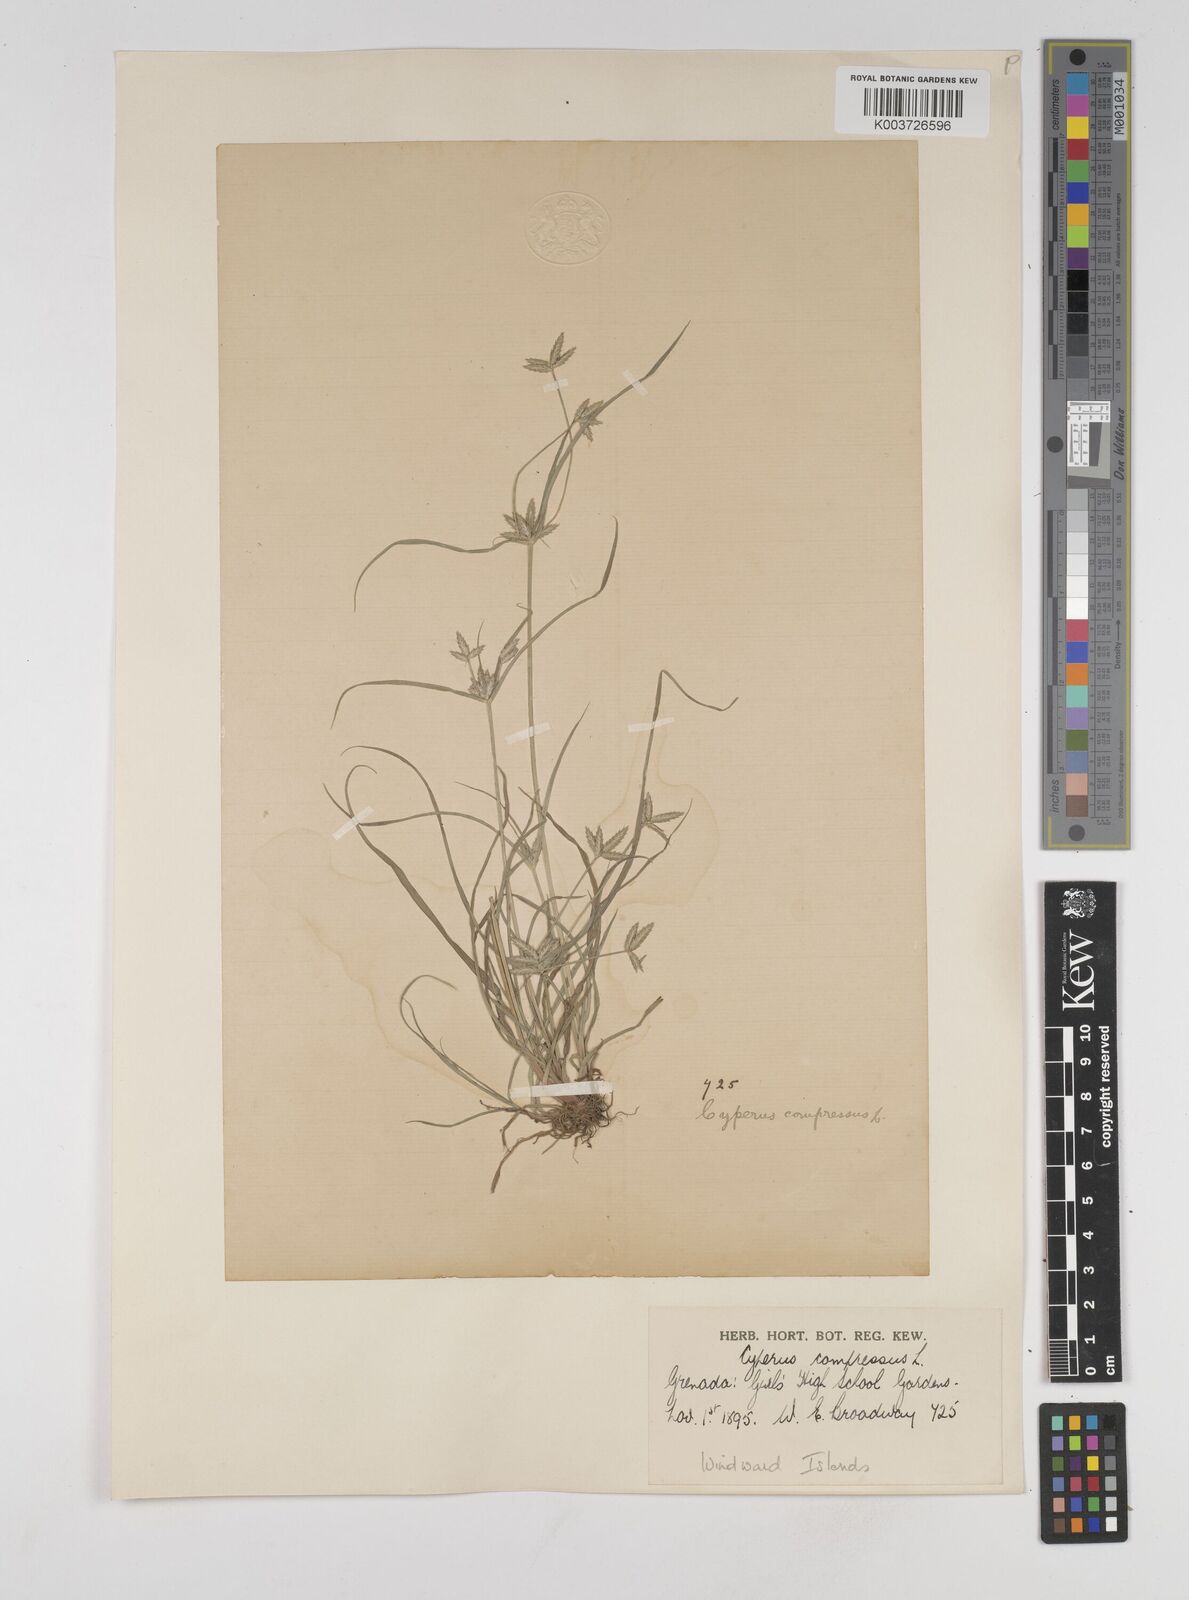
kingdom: Plantae
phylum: Tracheophyta
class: Liliopsida
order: Poales
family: Cyperaceae
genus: Cyperus
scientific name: Cyperus compressus
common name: Poorland flatsedge
